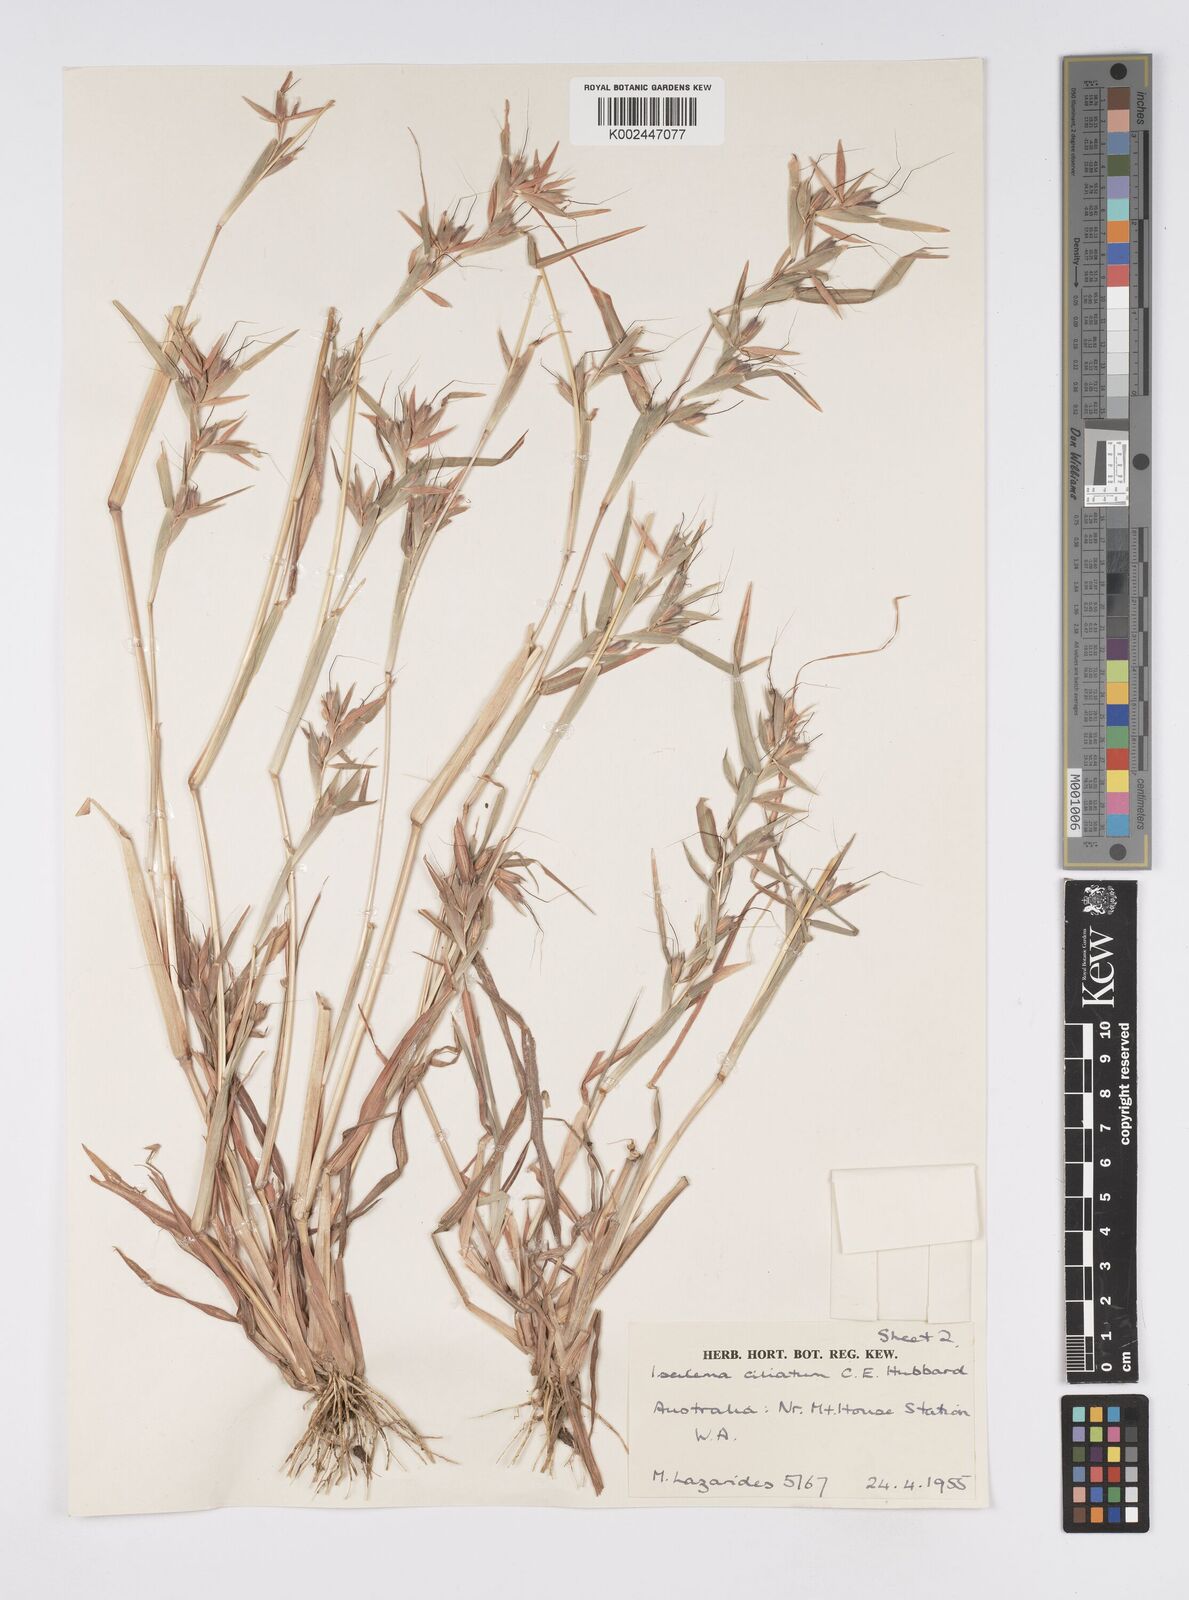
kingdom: Plantae
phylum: Tracheophyta
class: Liliopsida
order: Poales
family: Poaceae
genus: Iseilema
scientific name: Iseilema ciliatum
